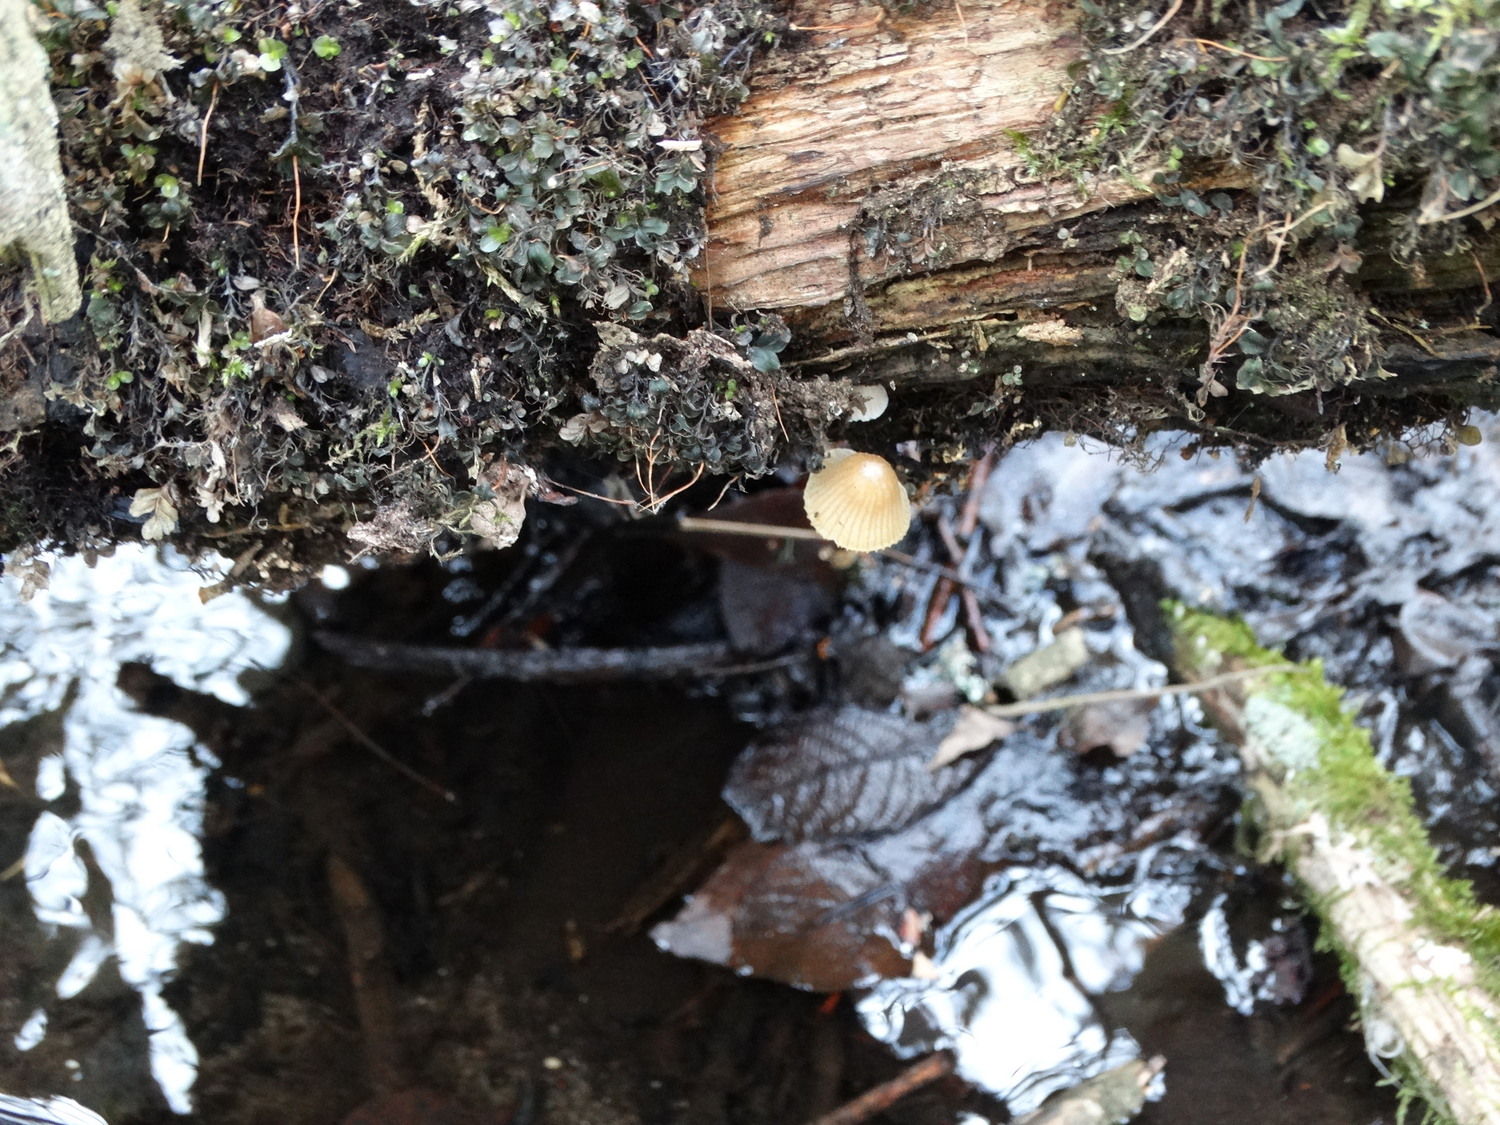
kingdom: Fungi
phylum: Basidiomycota
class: Agaricomycetes
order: Agaricales
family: Mycenaceae
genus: Mycena
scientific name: Mycena
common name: huesvamp
